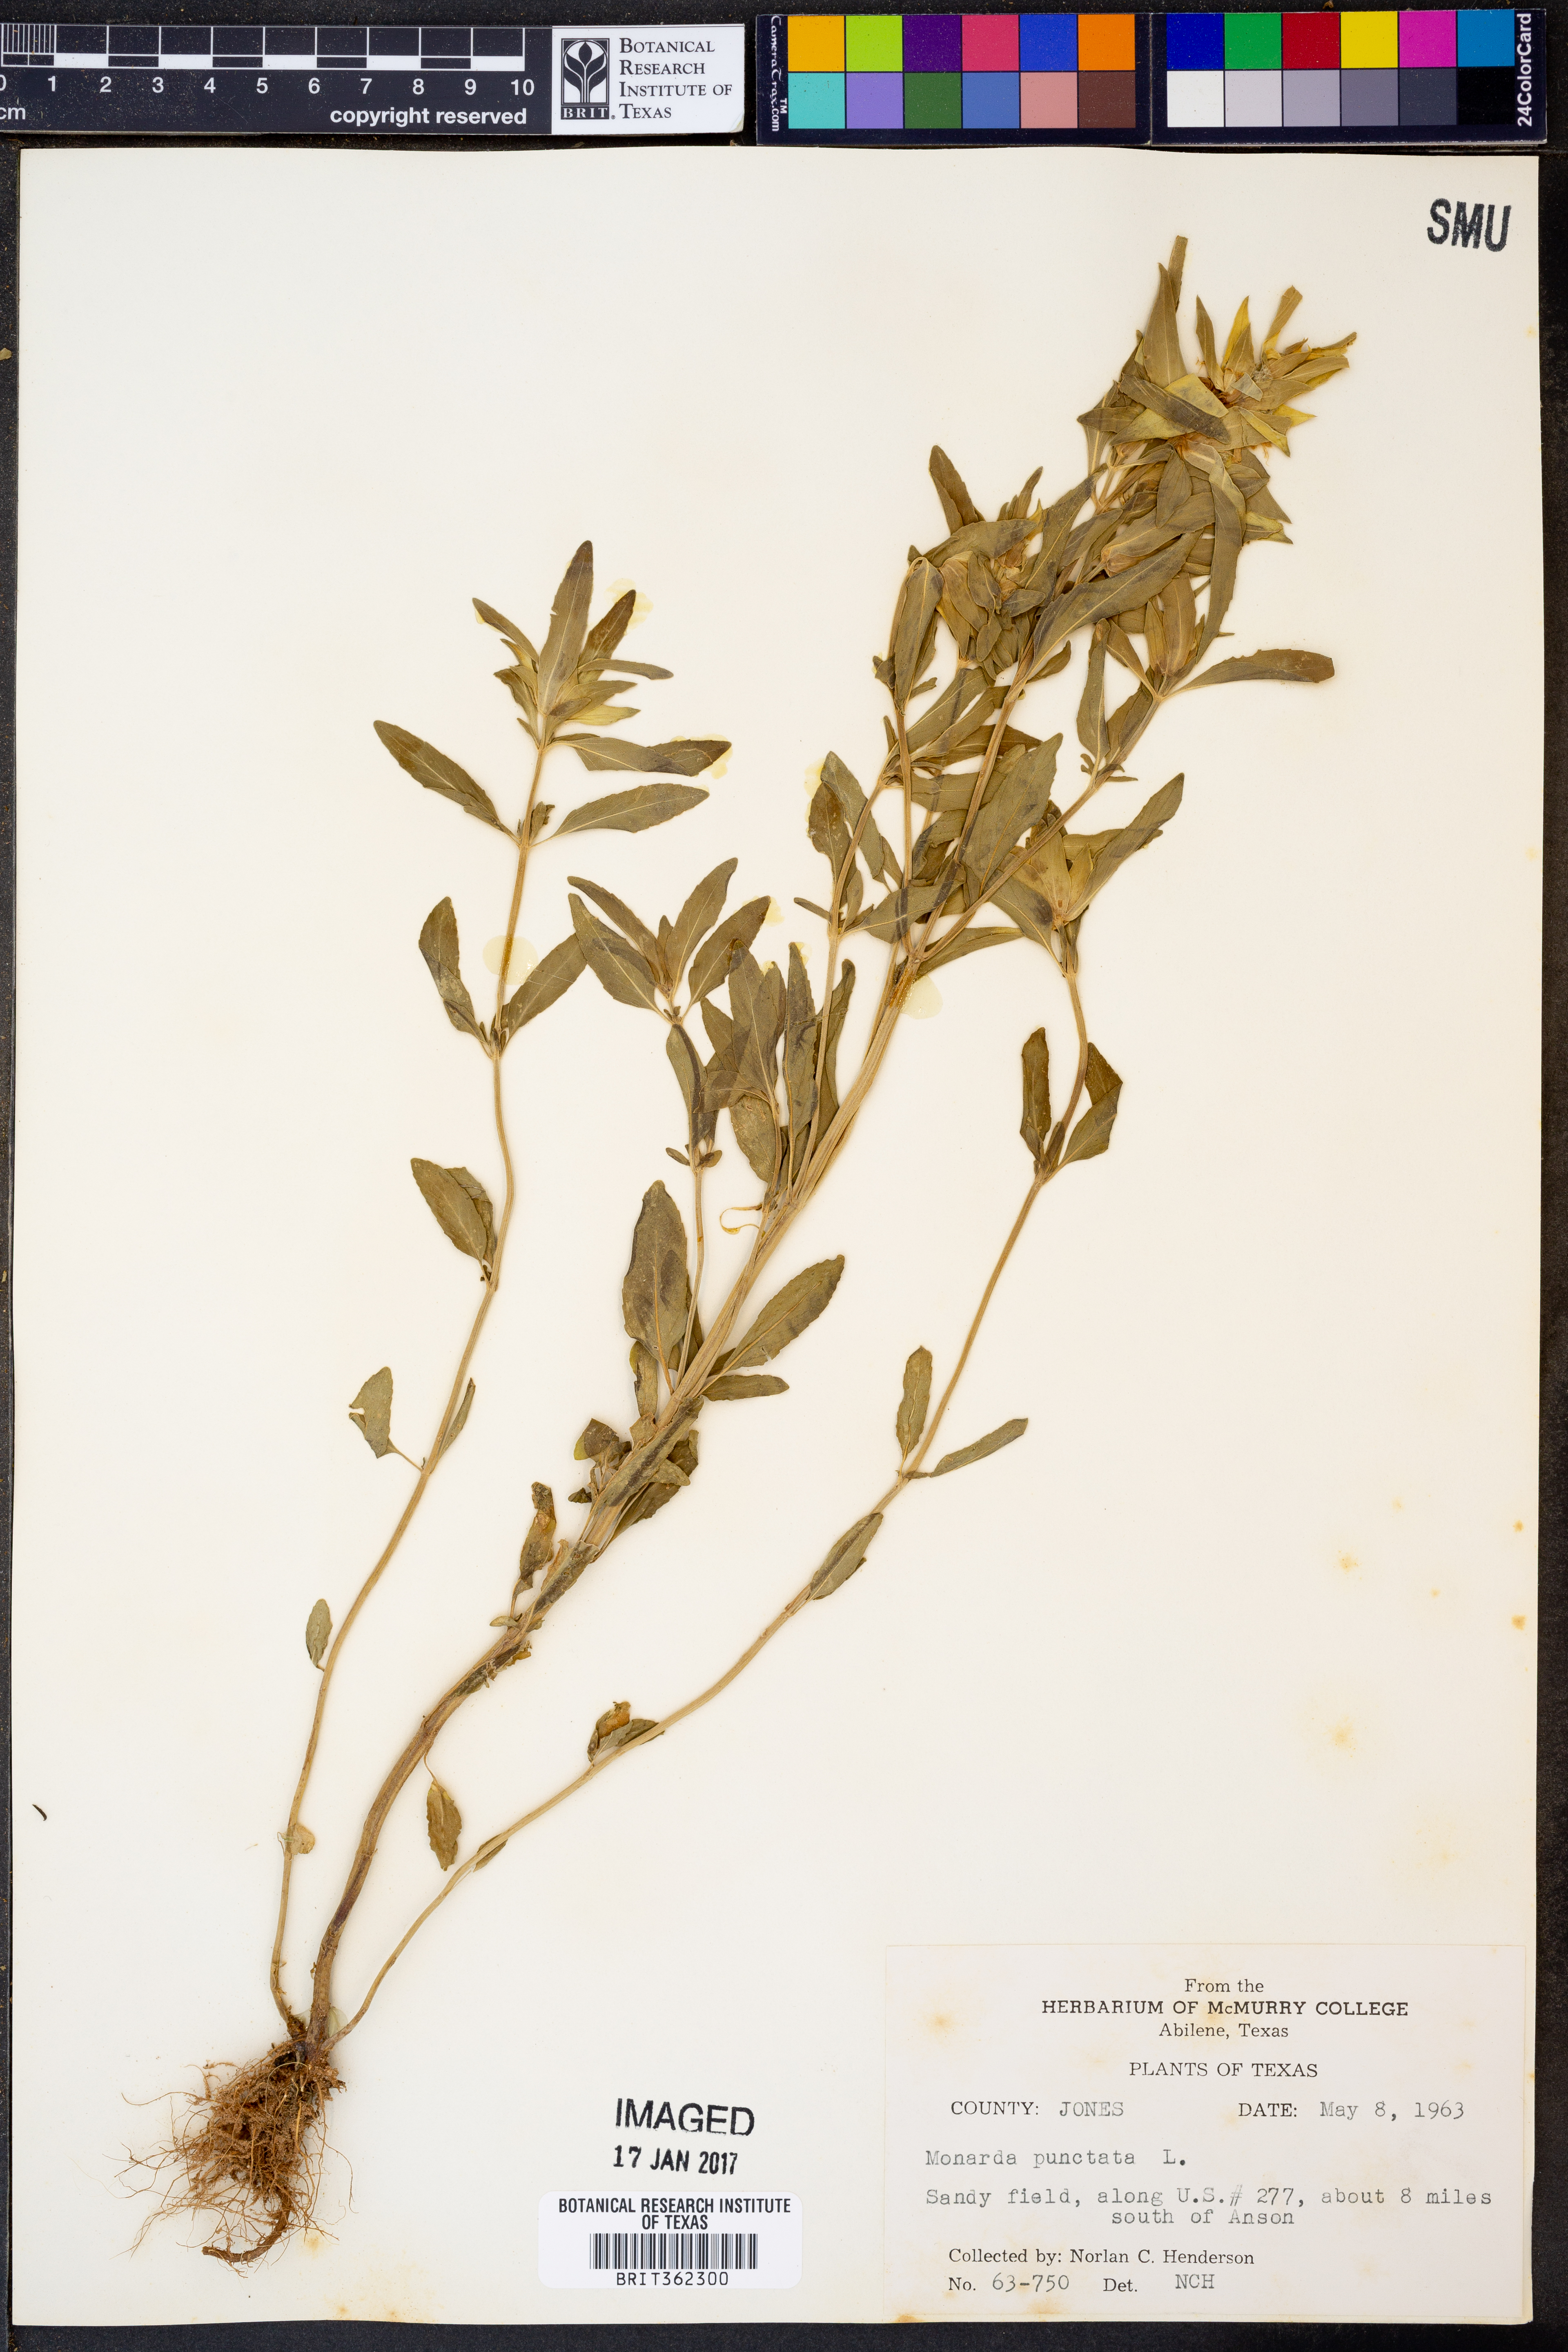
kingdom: Plantae
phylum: Tracheophyta
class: Magnoliopsida
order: Lamiales
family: Lamiaceae
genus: Monarda
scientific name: Monarda punctata
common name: Dotted monarda
